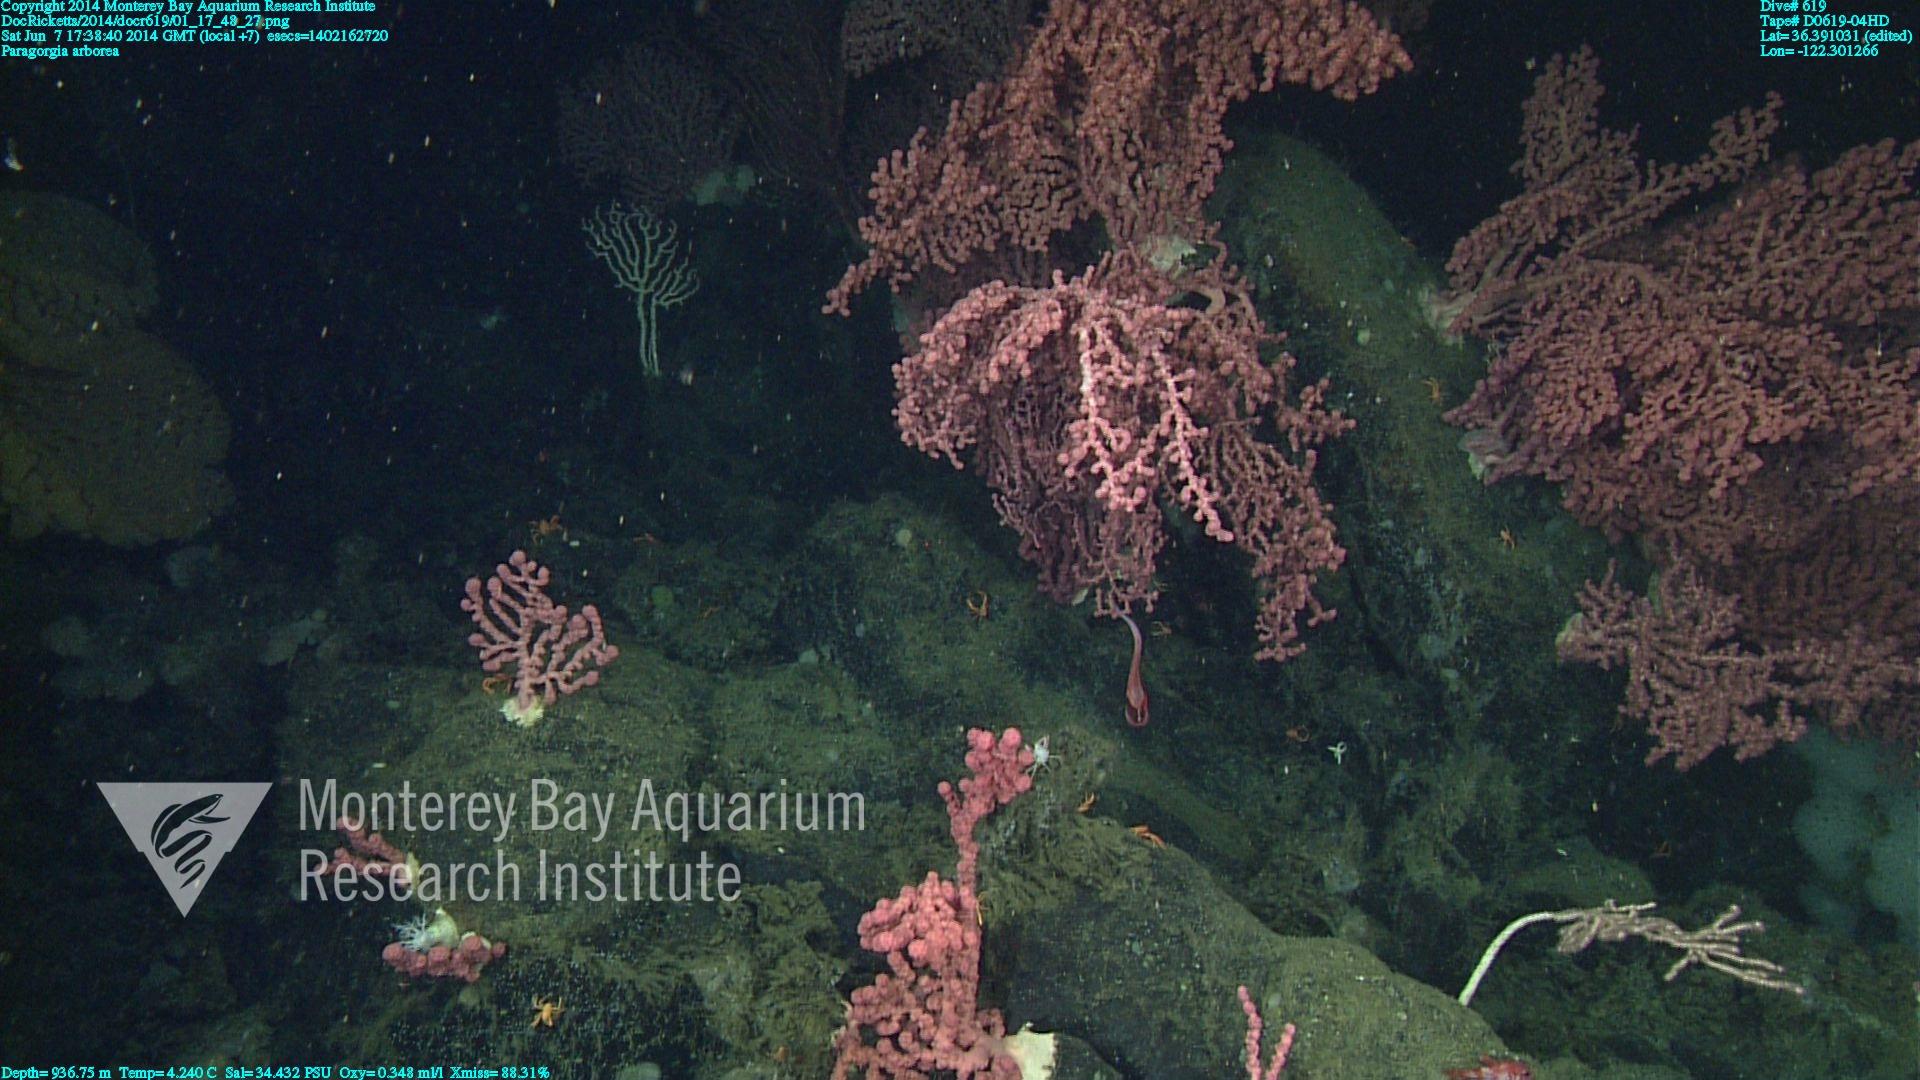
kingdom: Animalia
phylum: Cnidaria
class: Anthozoa
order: Scleralcyonacea
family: Coralliidae
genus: Paragorgia
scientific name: Paragorgia arborea
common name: Bubble gum coral
